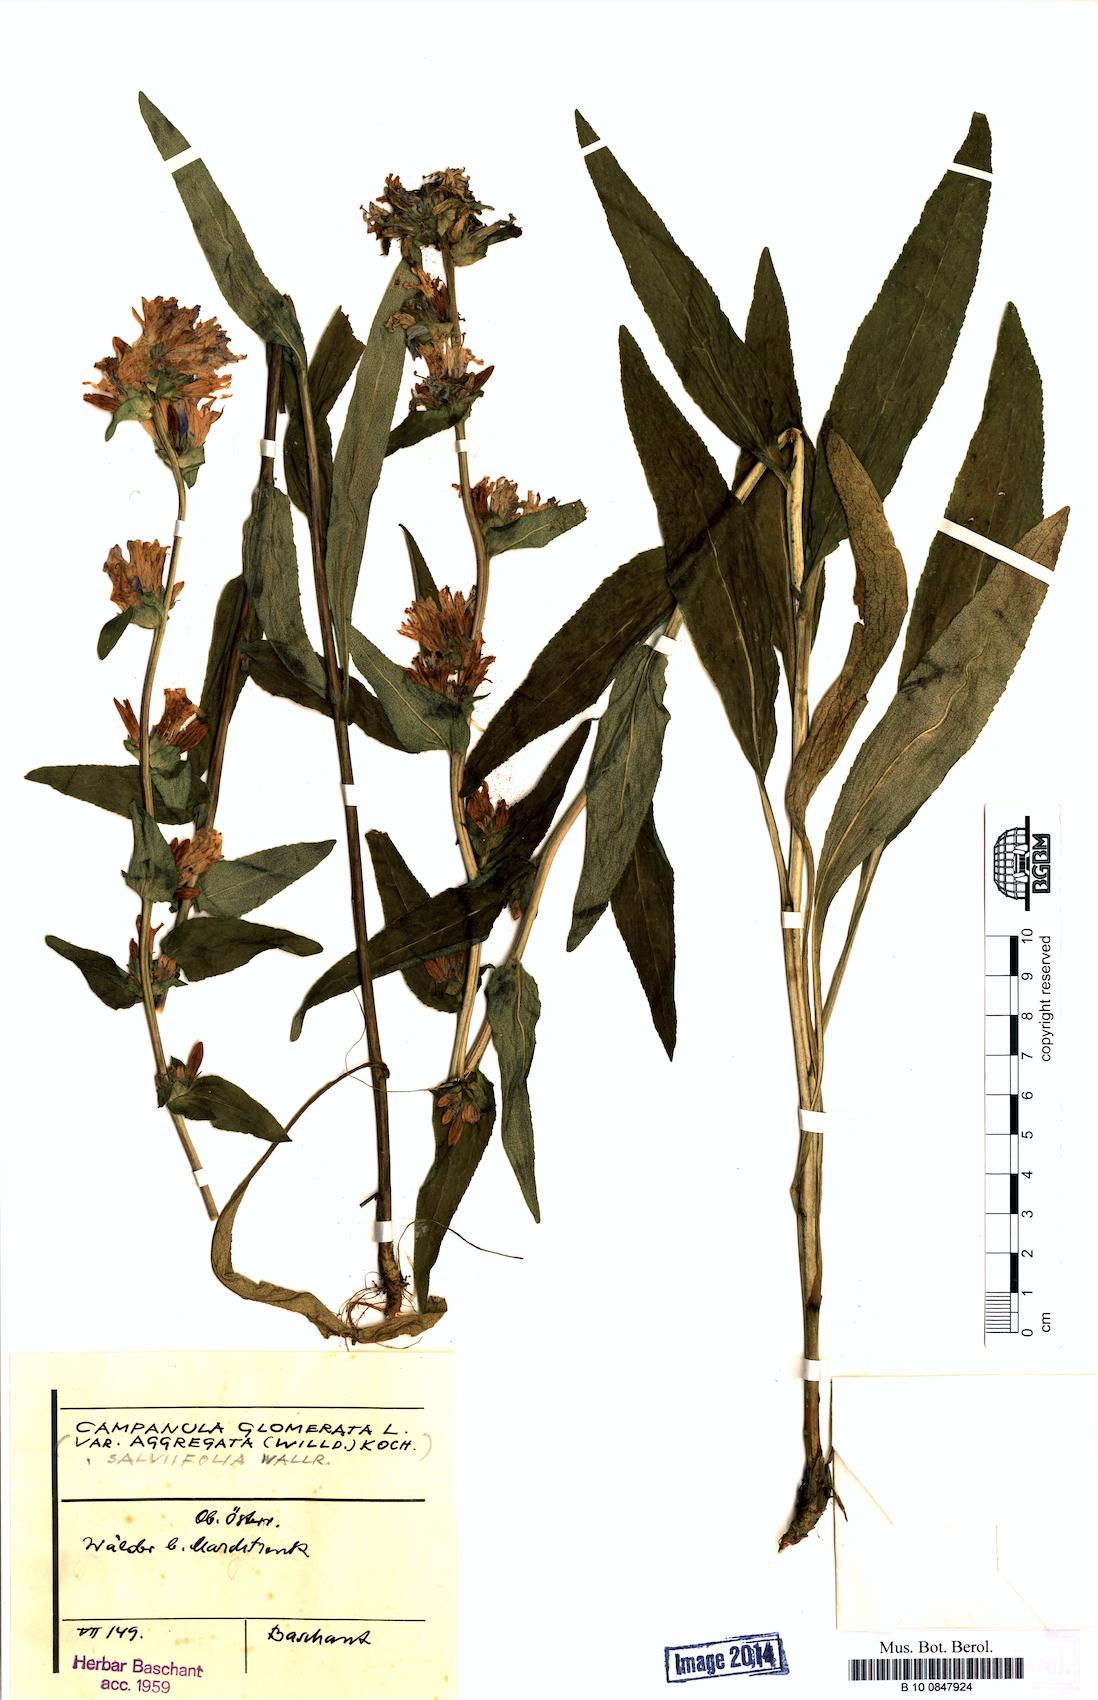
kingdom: Plantae
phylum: Tracheophyta
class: Magnoliopsida
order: Asterales
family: Campanulaceae
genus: Campanula
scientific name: Campanula glomerata
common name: Clustered bellflower
